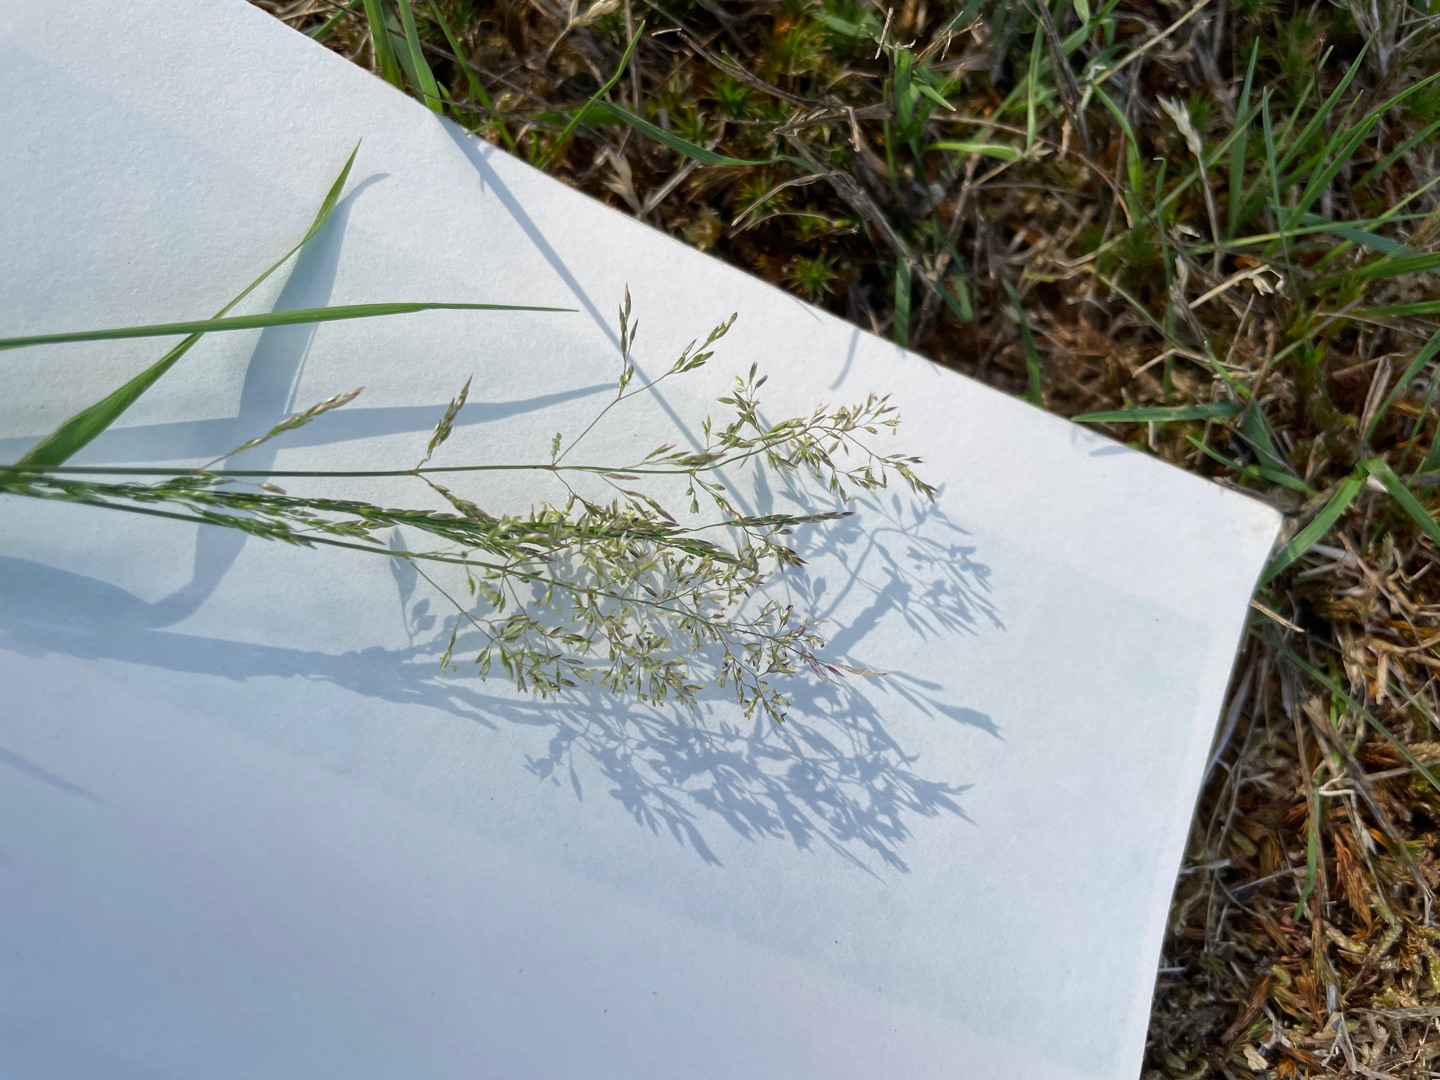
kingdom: Plantae
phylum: Tracheophyta
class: Liliopsida
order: Poales
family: Poaceae
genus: Agrostis
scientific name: Agrostis
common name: Hveneslægten
